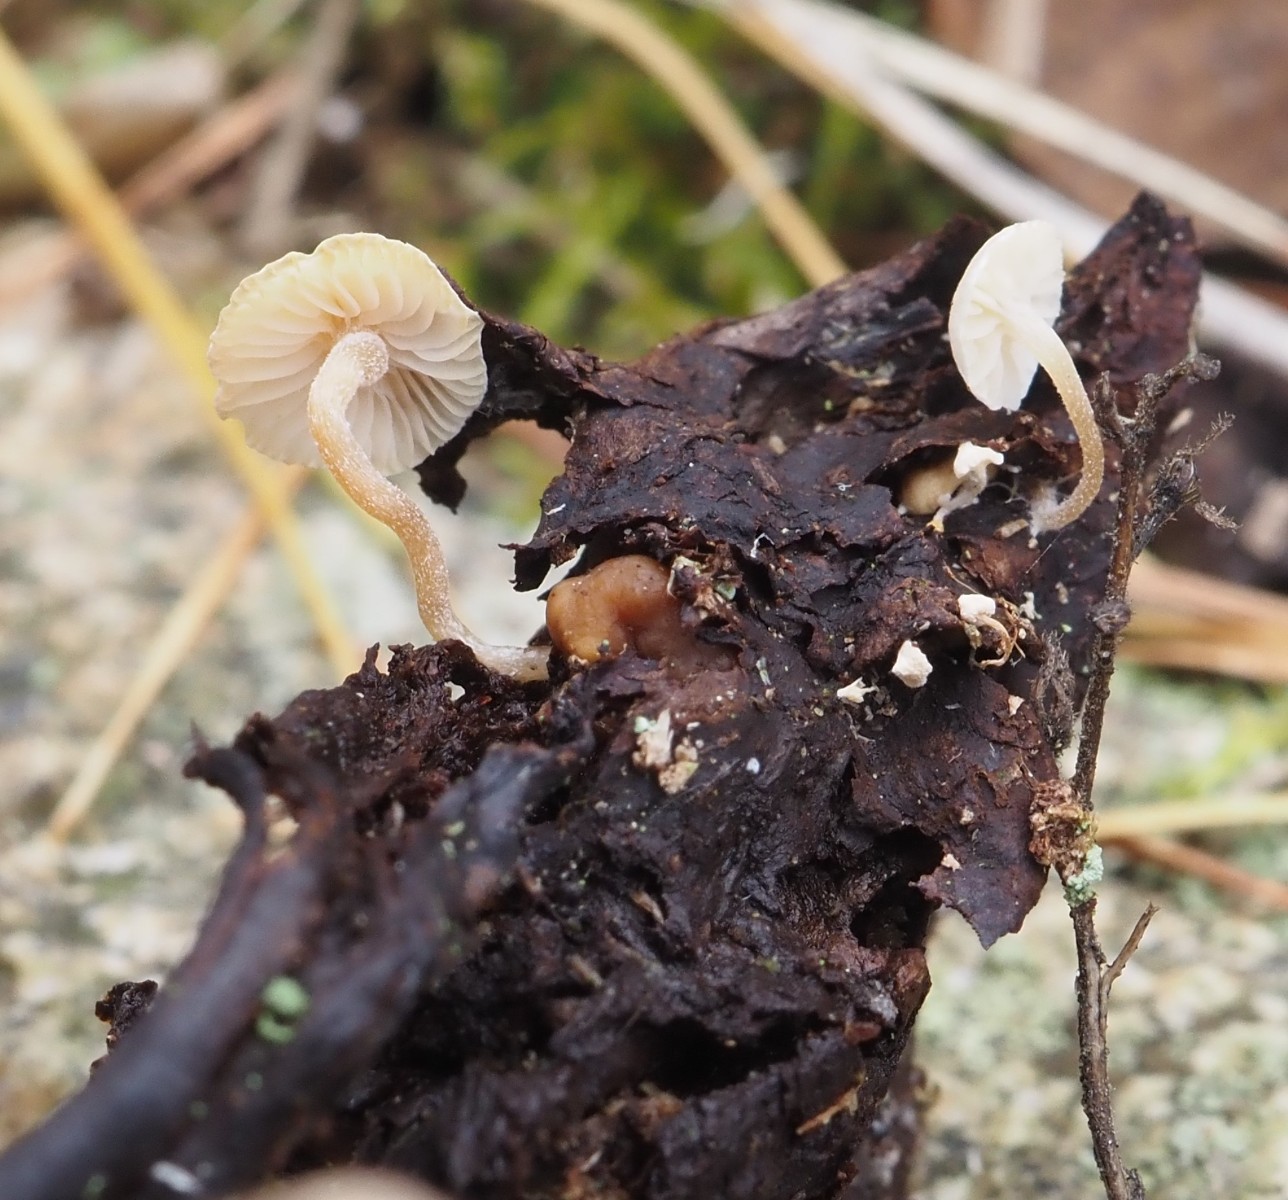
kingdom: Fungi
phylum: Basidiomycota
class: Agaricomycetes
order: Agaricales
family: Tricholomataceae
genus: Collybia
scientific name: Collybia cookei
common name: gulknoldet lighat
